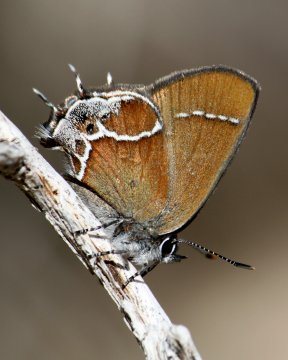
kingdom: Animalia
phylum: Arthropoda
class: Insecta
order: Lepidoptera
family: Lycaenidae
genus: Xamia
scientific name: Xamia xami
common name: Xami Hairstreak
